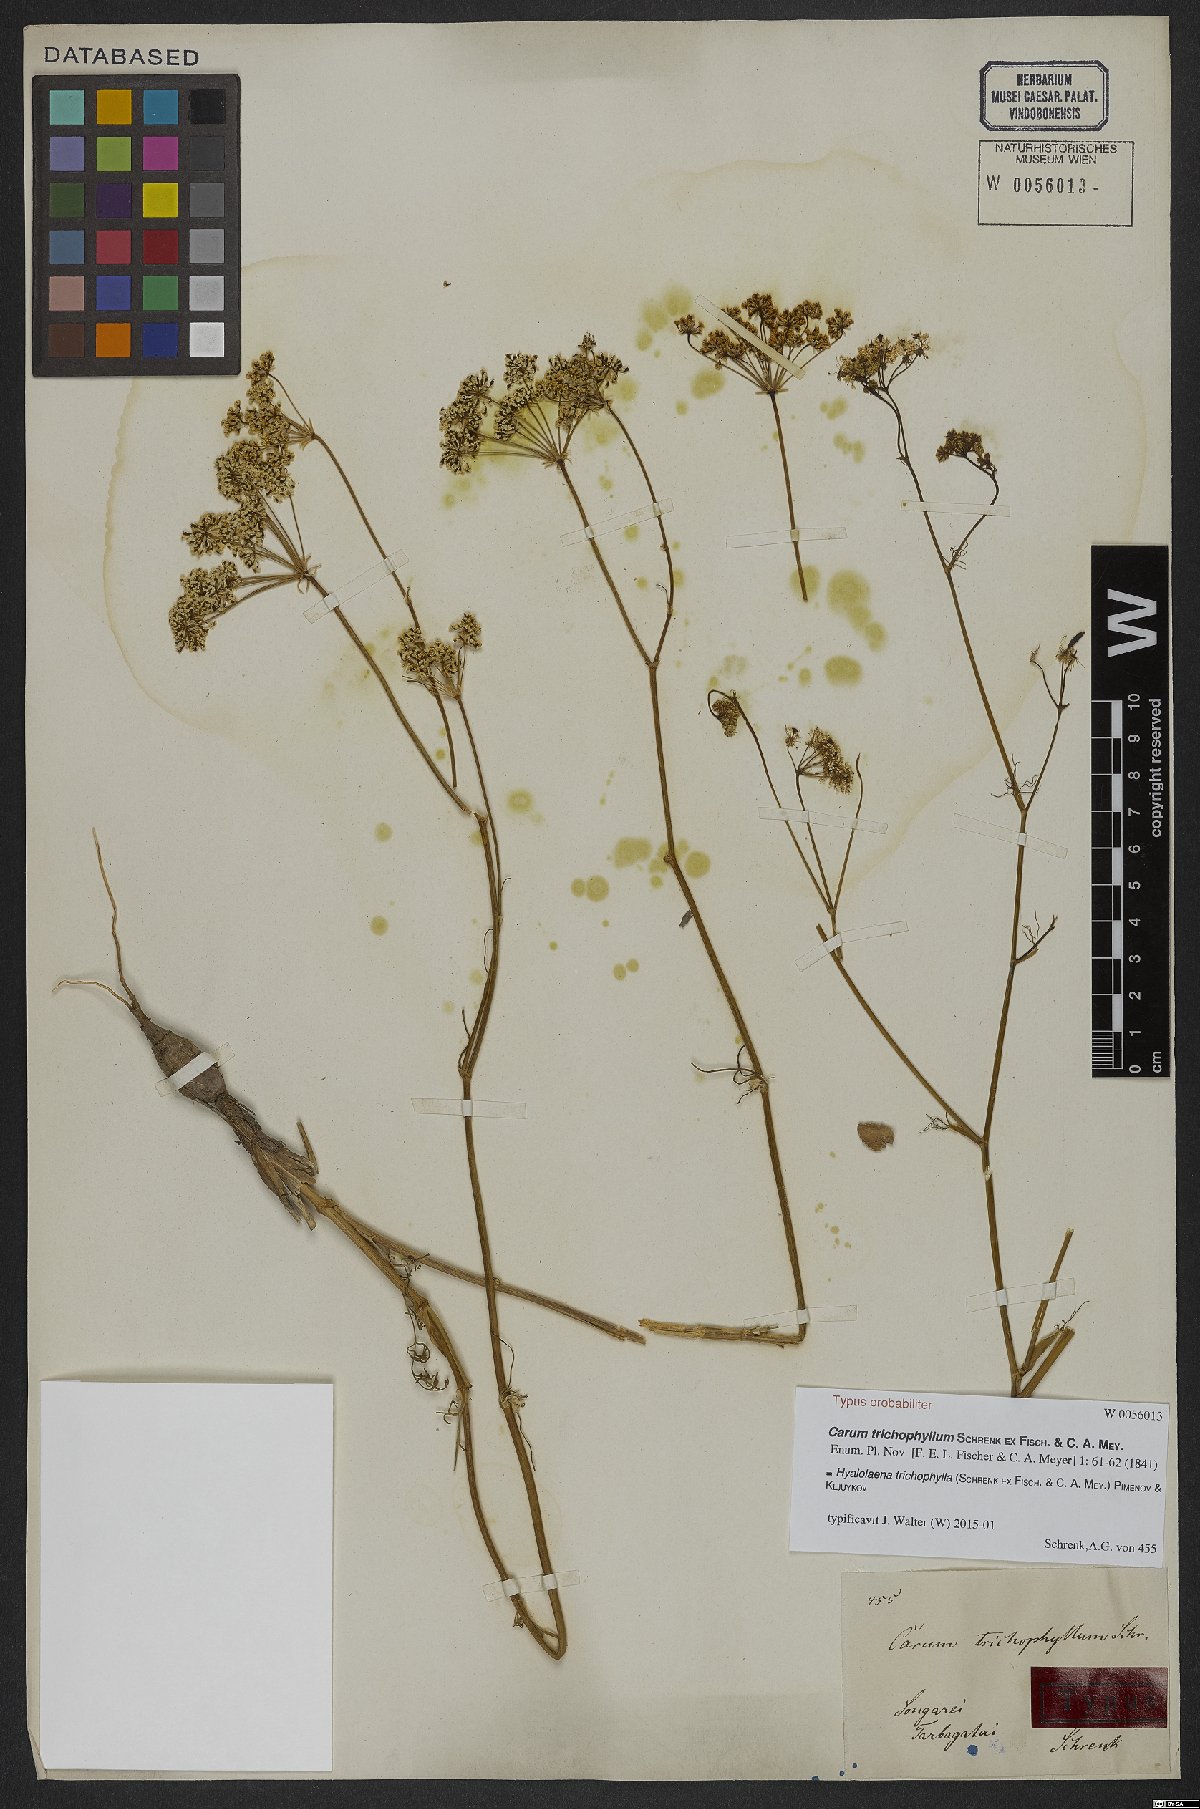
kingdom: Plantae
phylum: Tracheophyta
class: Magnoliopsida
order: Apiales
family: Apiaceae
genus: Hyalolaena
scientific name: Hyalolaena trichophylla
